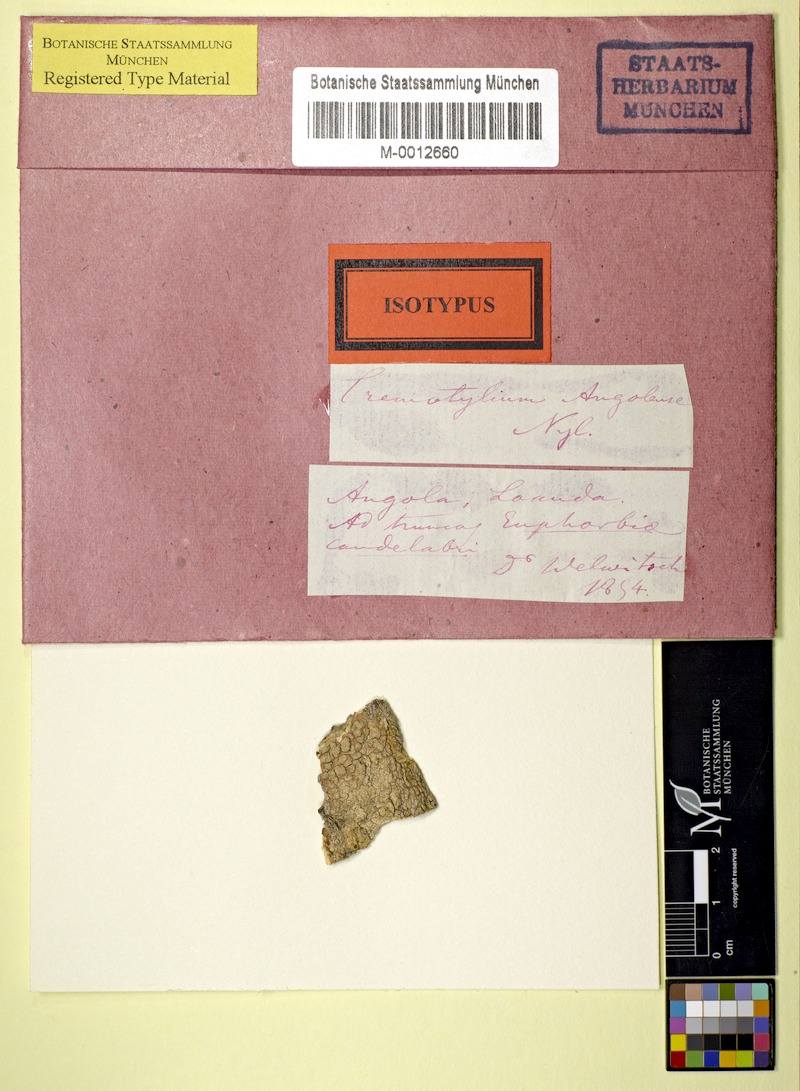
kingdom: Fungi
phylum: Ascomycota
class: Lecanoromycetes
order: Ostropales
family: Graphidaceae
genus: Tremotylium
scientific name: Tremotylium angolense
